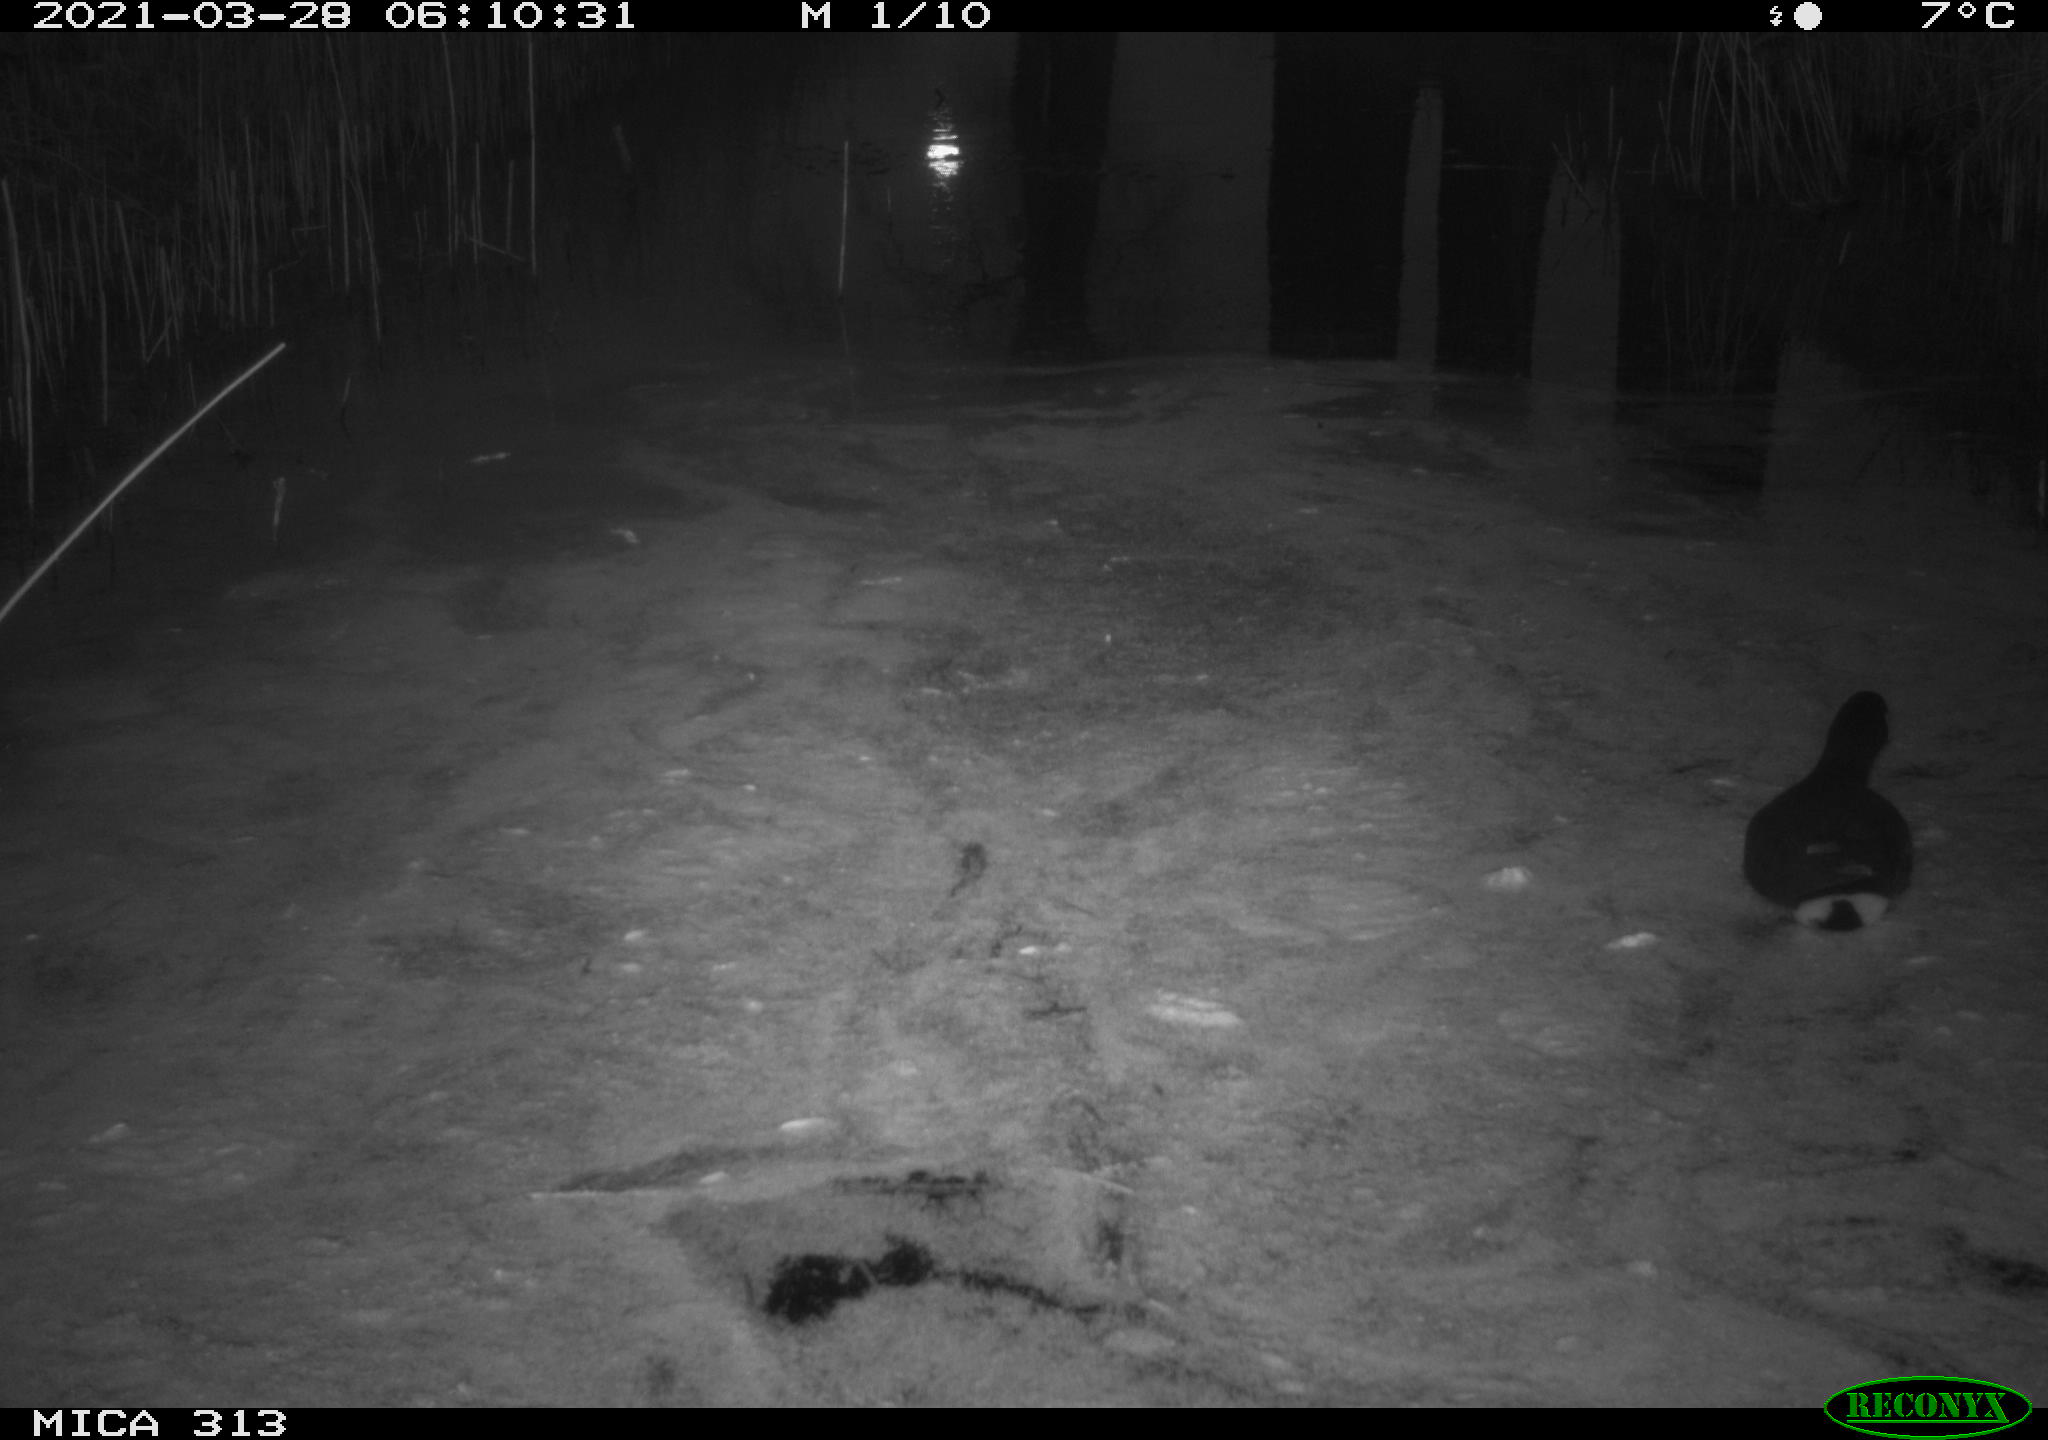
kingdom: Animalia
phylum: Chordata
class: Aves
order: Gruiformes
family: Rallidae
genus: Fulica
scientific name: Fulica atra
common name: Eurasian coot
